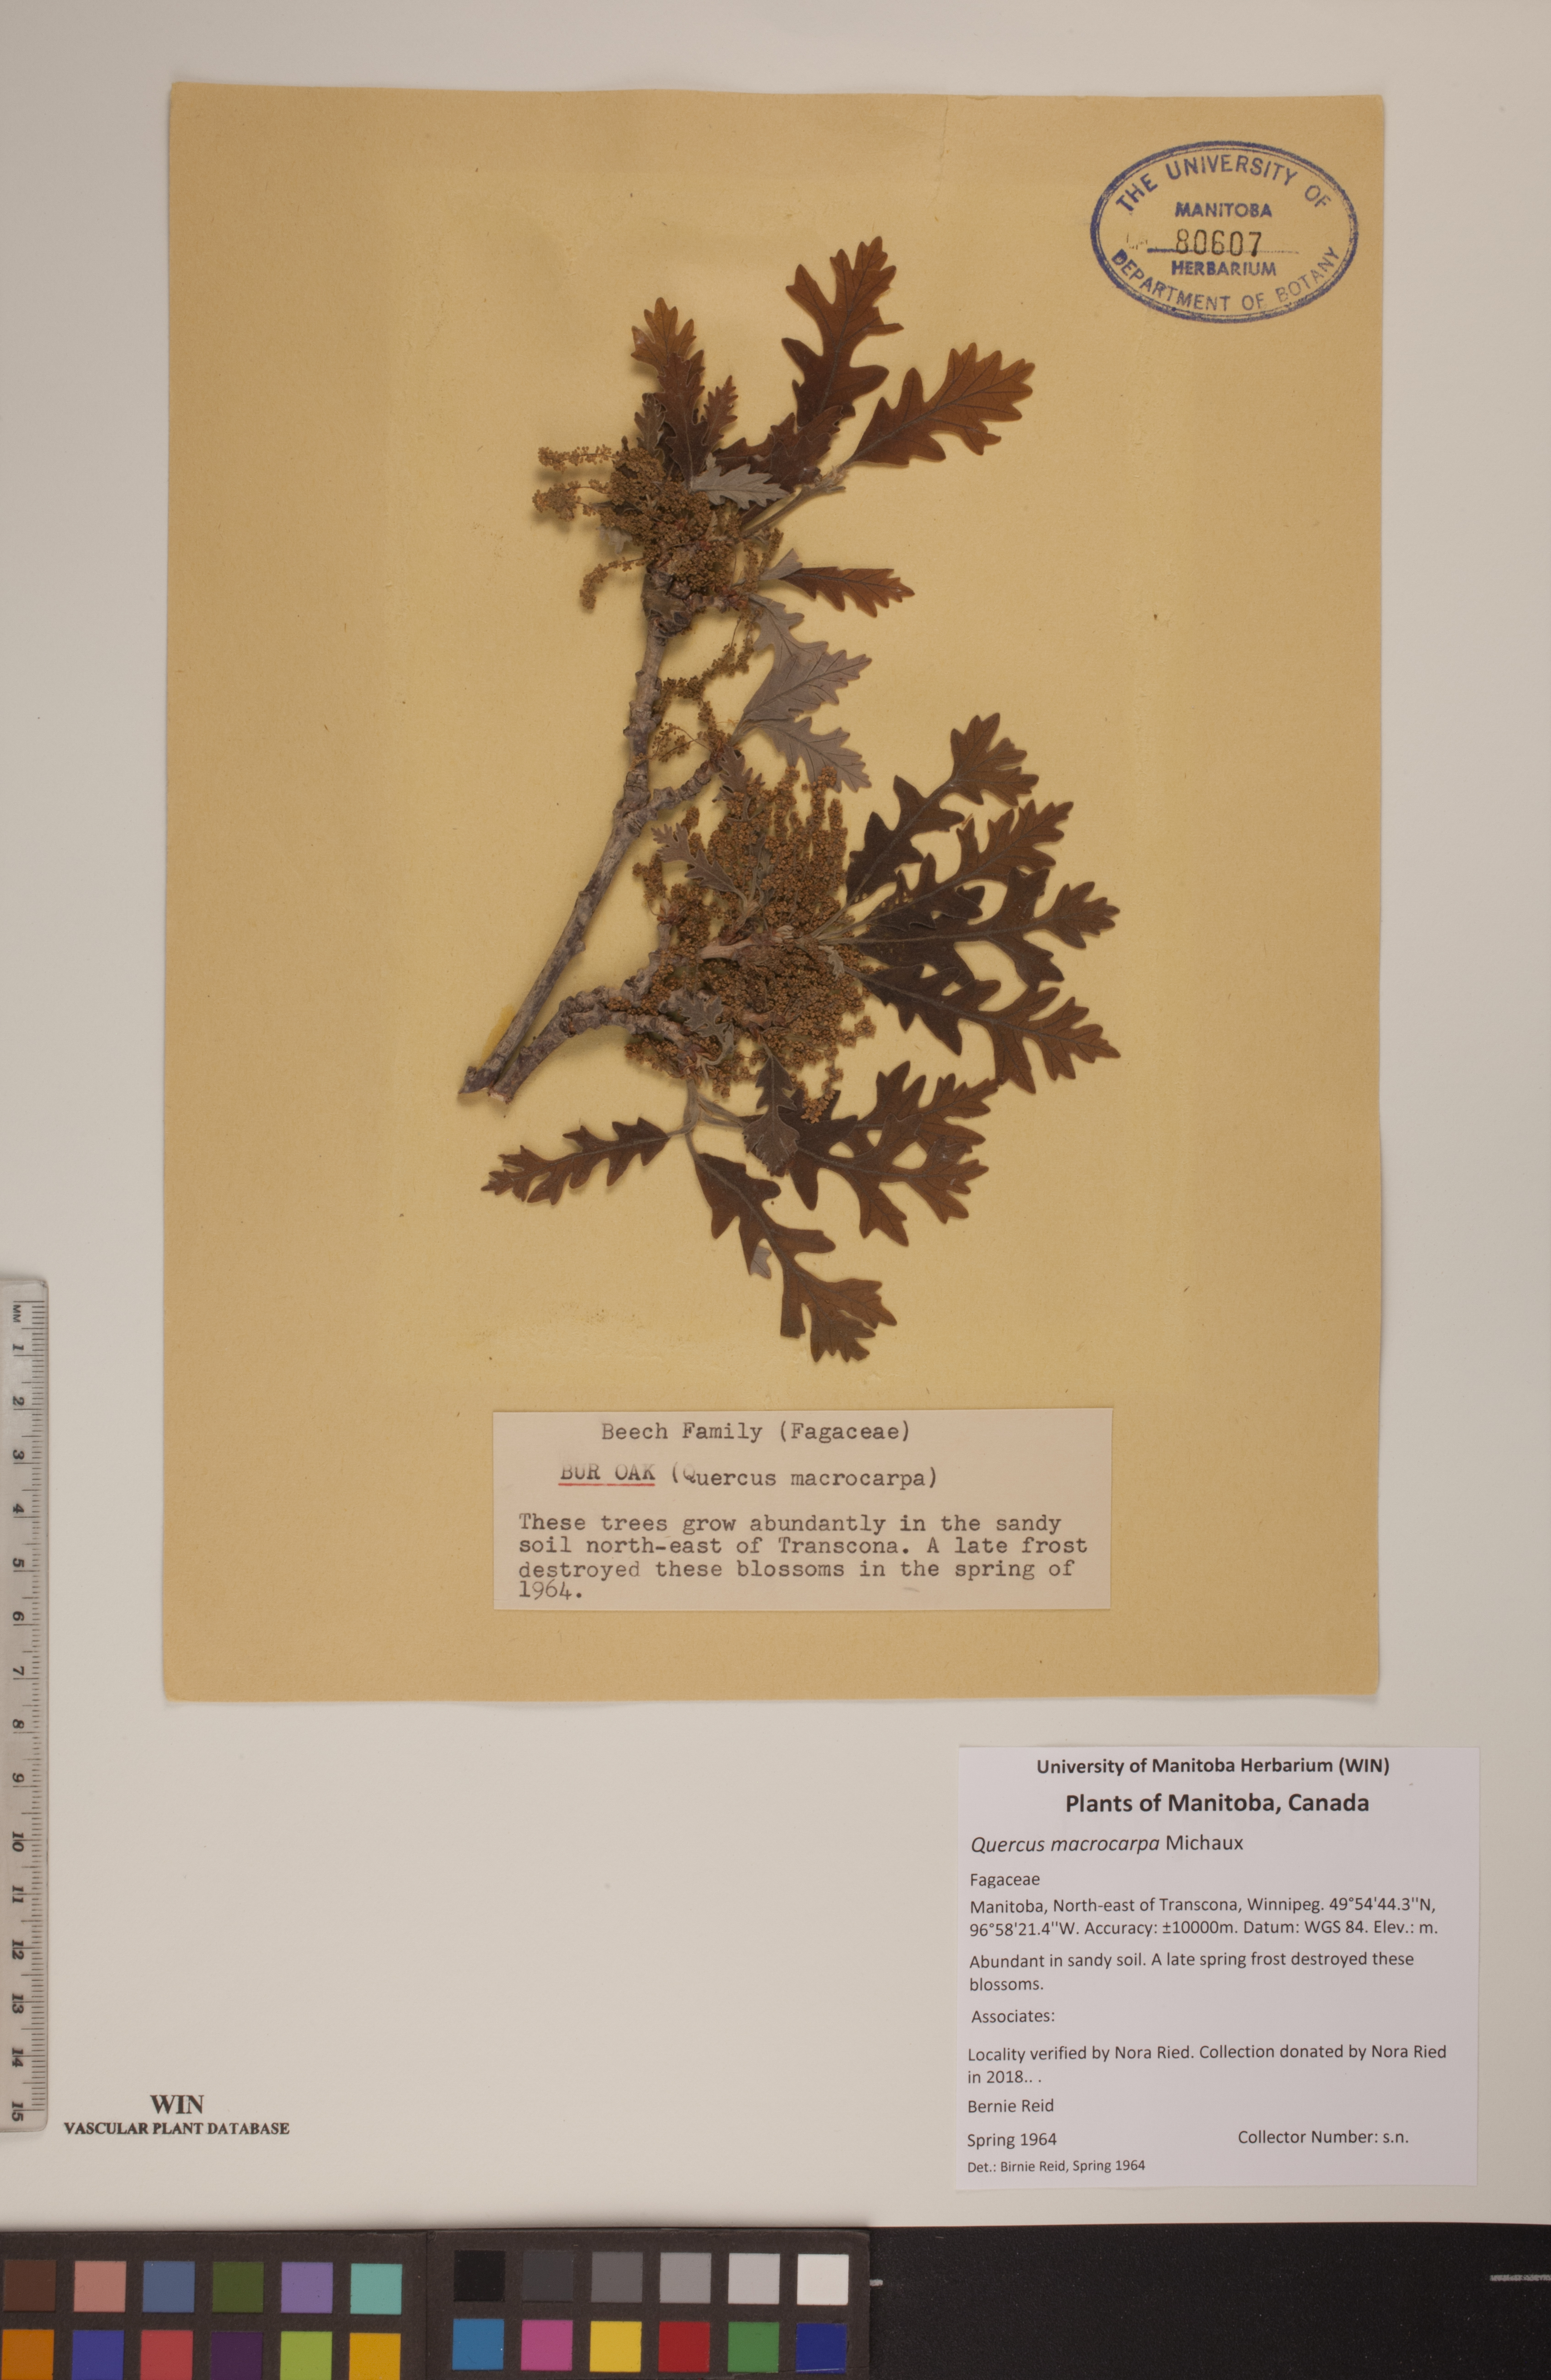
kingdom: Plantae
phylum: Tracheophyta
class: Magnoliopsida
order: Fagales
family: Fagaceae
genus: Quercus
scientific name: Quercus macrocarpa
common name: Bur oak
